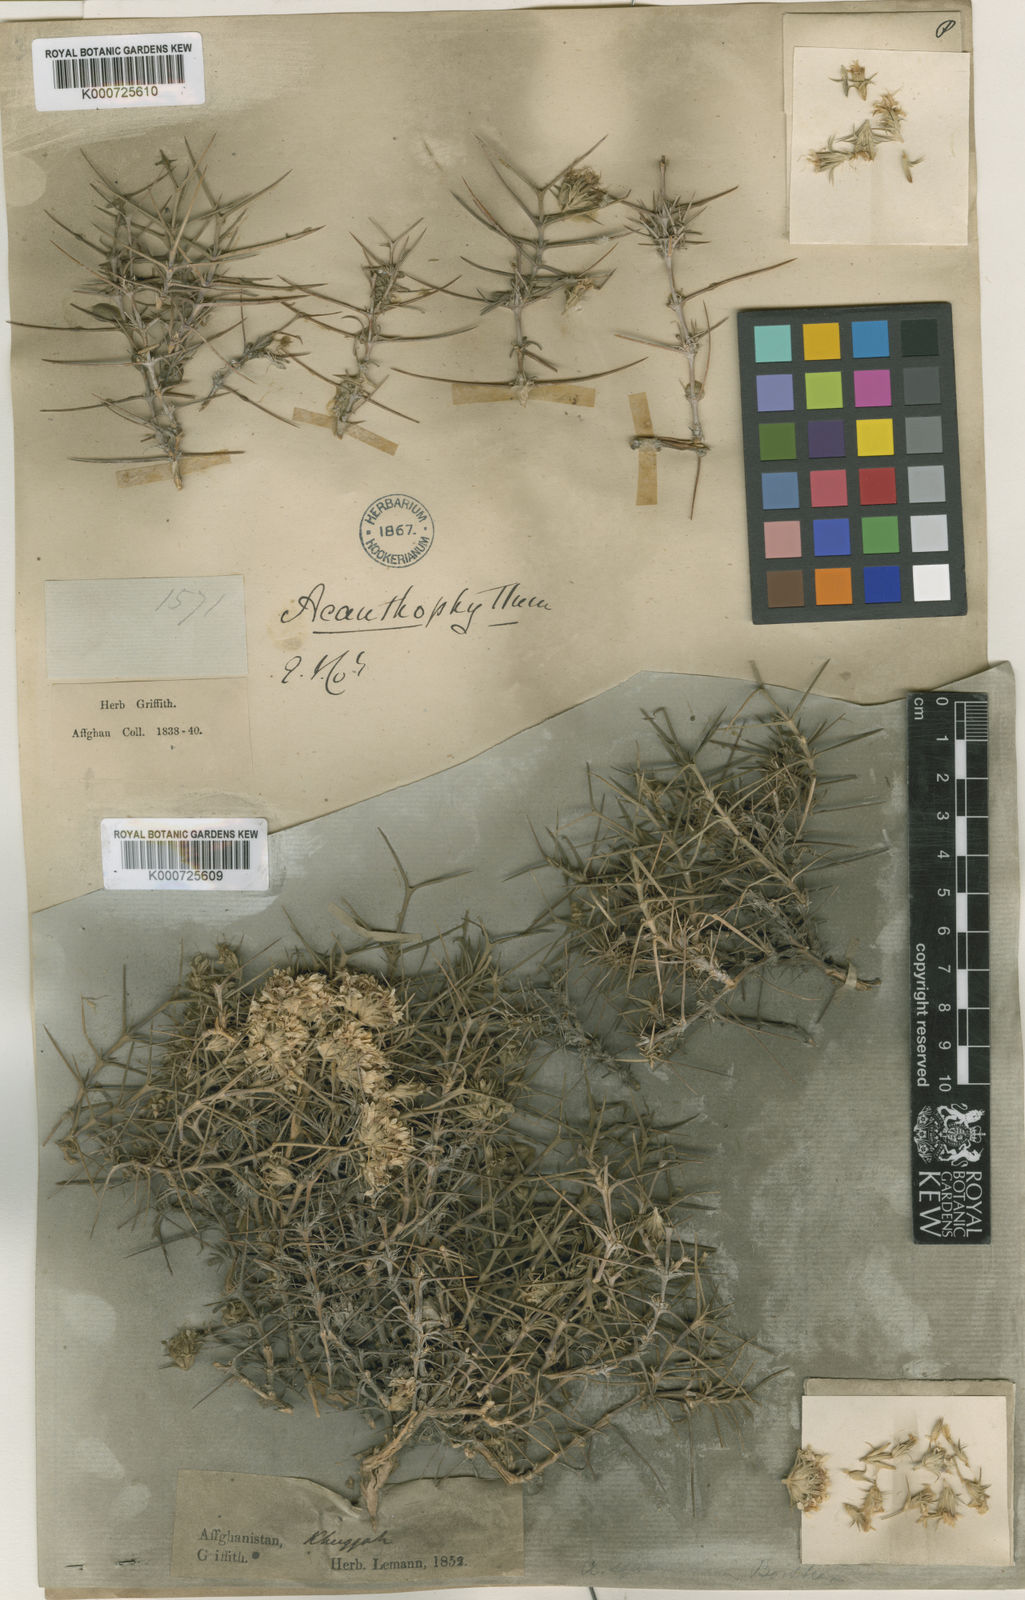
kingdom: Plantae
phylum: Tracheophyta
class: Magnoliopsida
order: Caryophyllales
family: Caryophyllaceae
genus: Acanthophyllum
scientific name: Acanthophyllum laxiflorum
